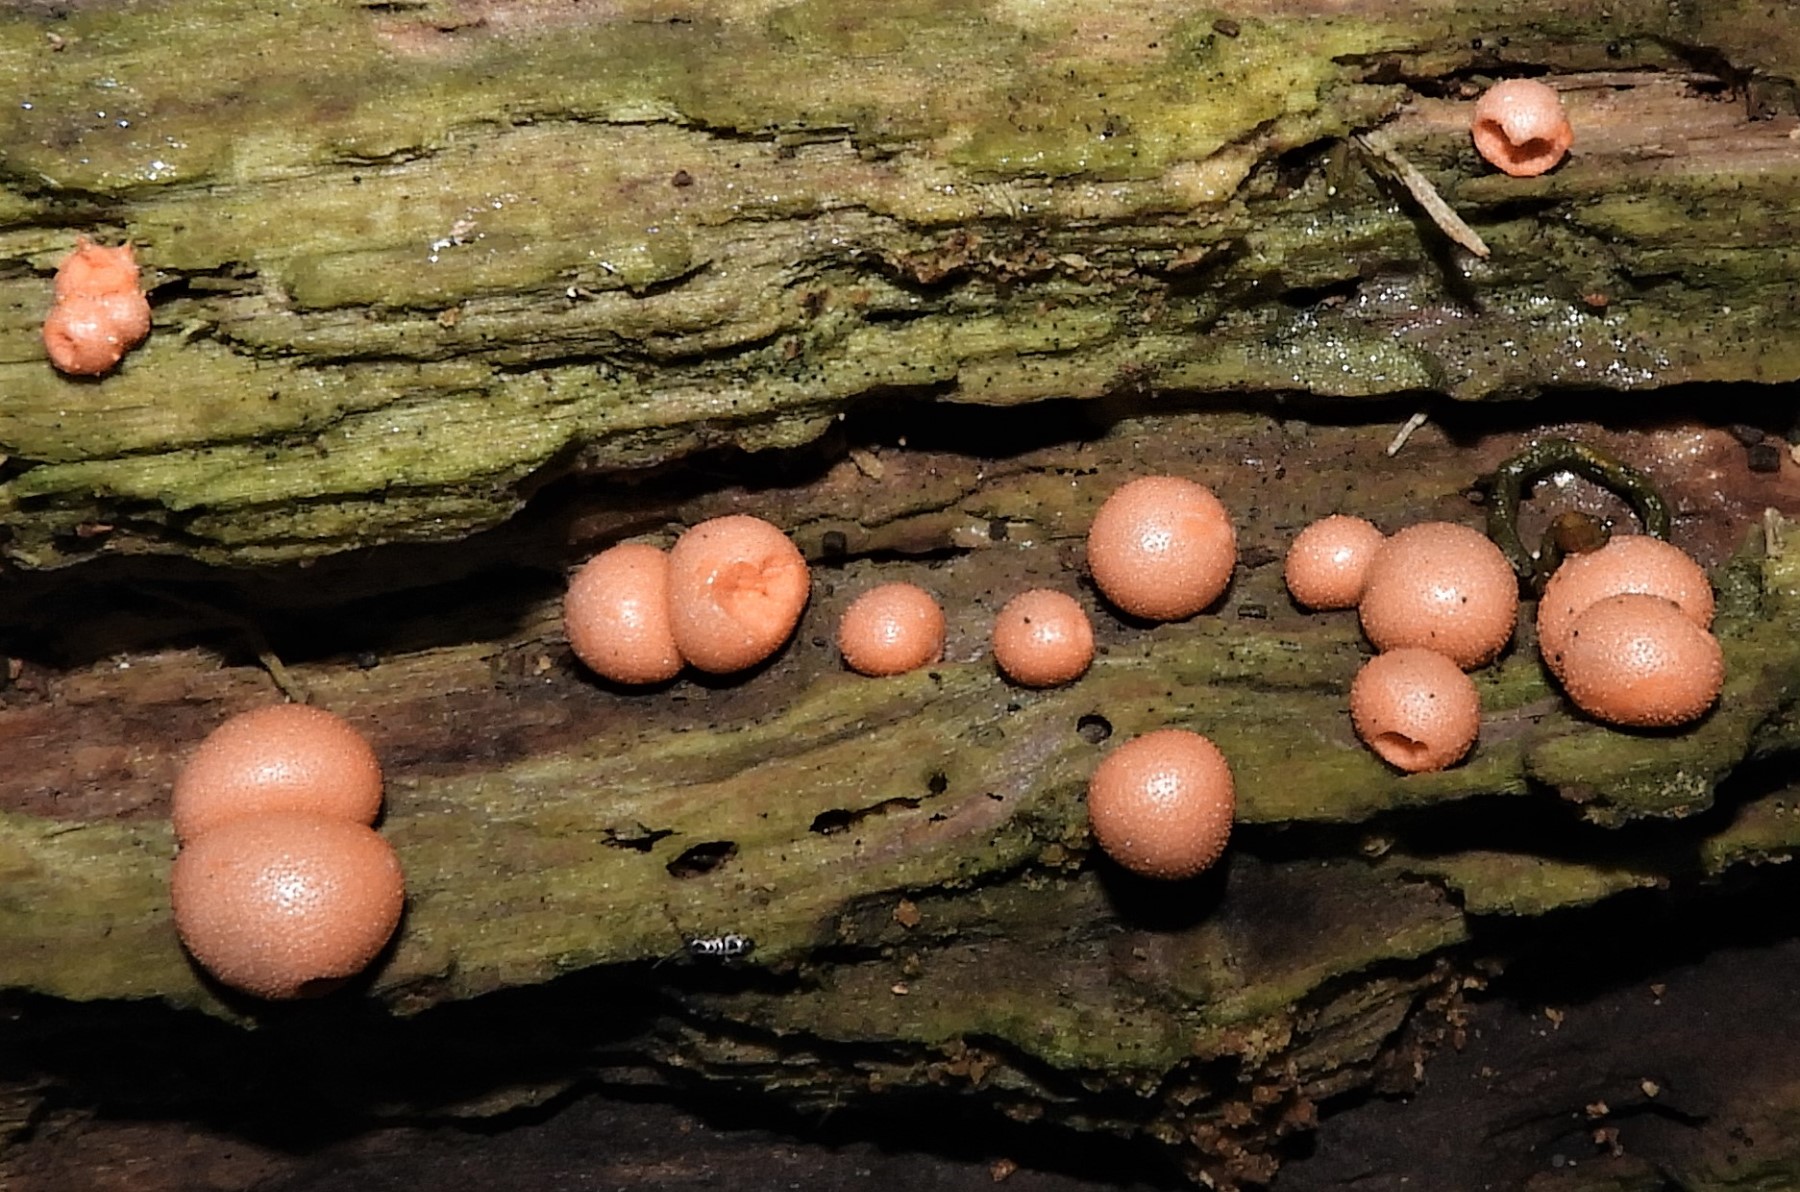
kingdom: Protozoa
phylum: Mycetozoa
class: Myxomycetes
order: Cribrariales
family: Tubiferaceae
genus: Lycogala
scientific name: Lycogala epidendrum
